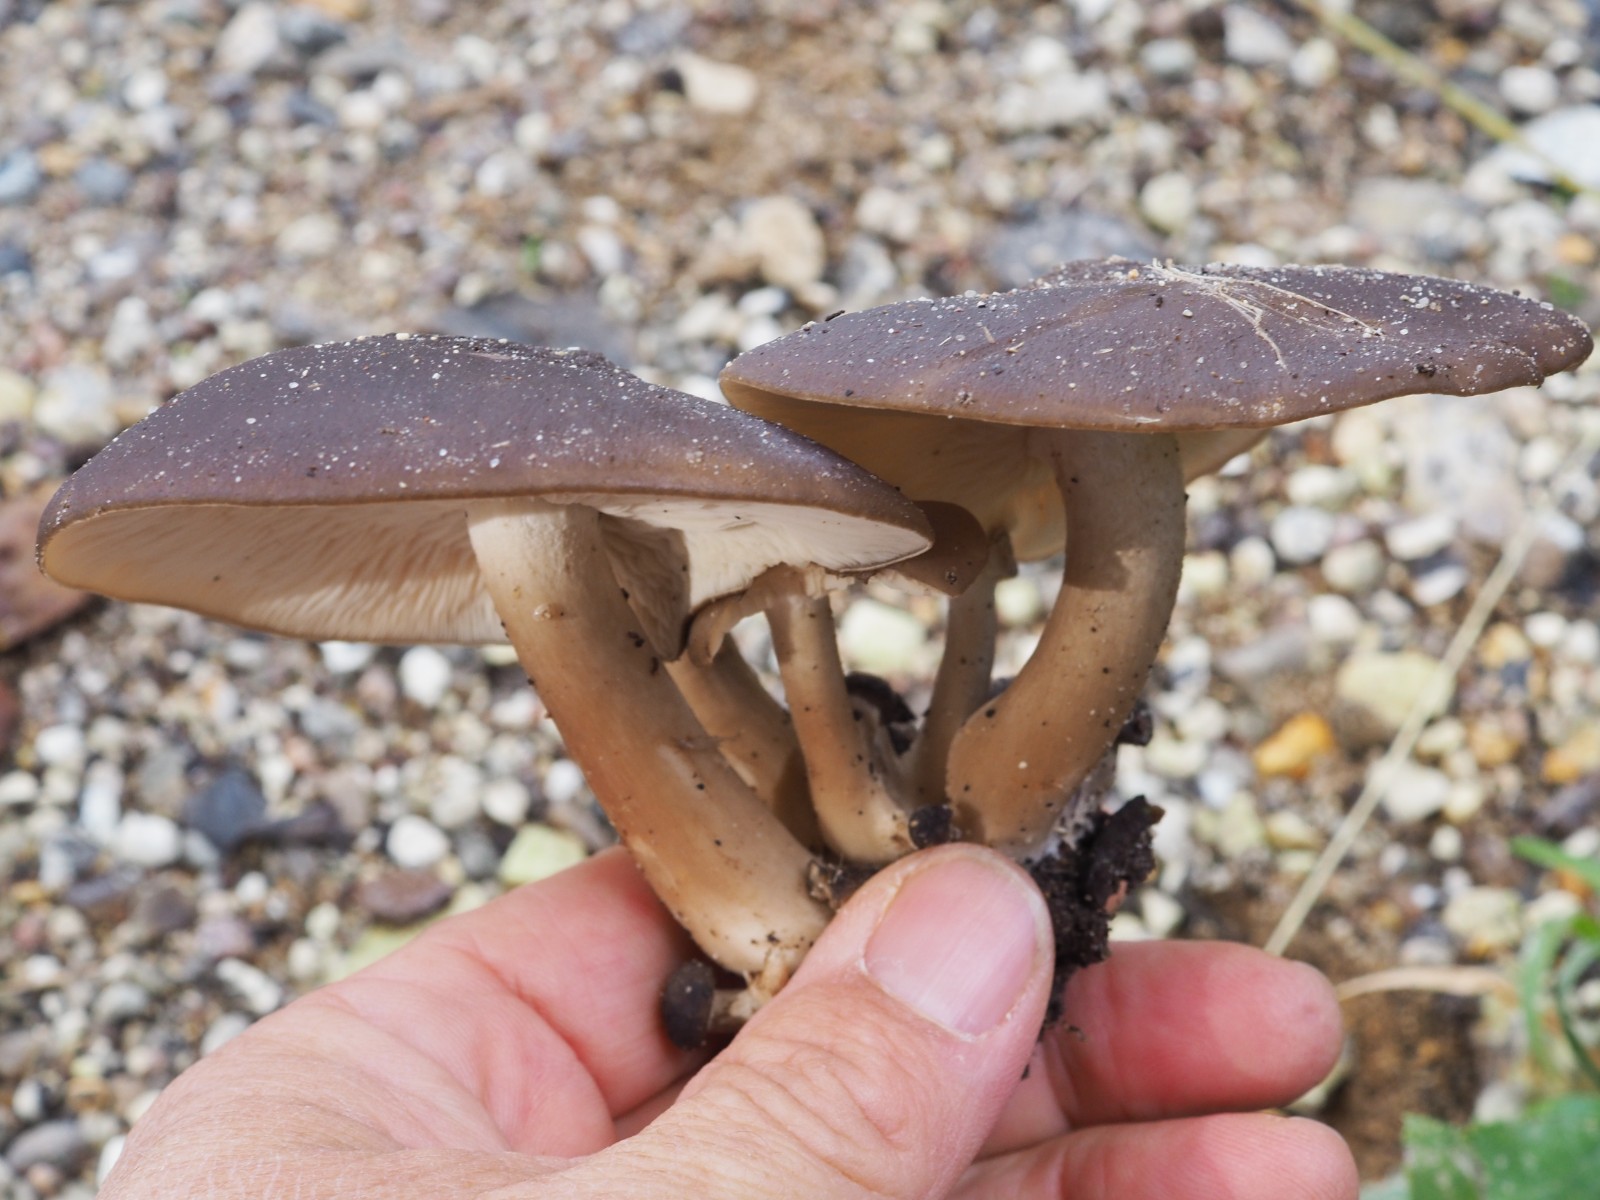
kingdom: Fungi
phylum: Basidiomycota
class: Agaricomycetes
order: Agaricales
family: Lyophyllaceae
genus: Lyophyllum
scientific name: Lyophyllum decastes
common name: røggrå gråblad
